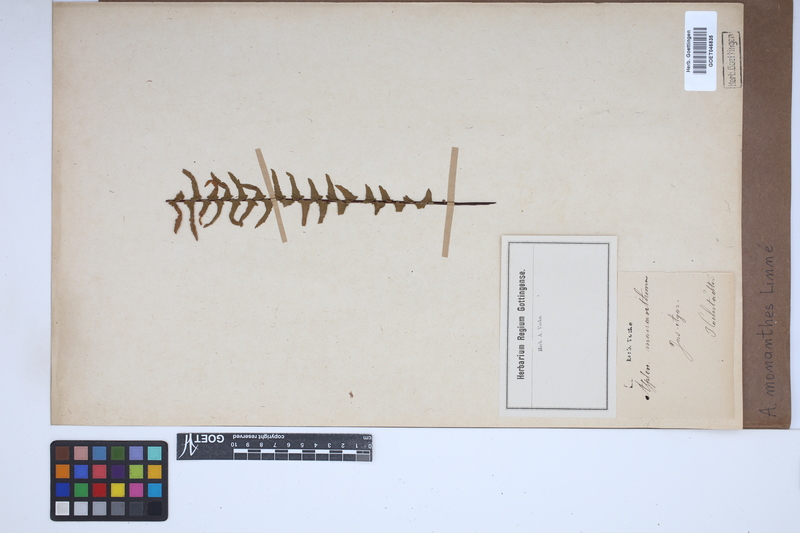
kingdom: Plantae
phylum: Tracheophyta
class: Polypodiopsida
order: Polypodiales
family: Aspleniaceae
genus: Asplenium
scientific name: Asplenium monanthes
